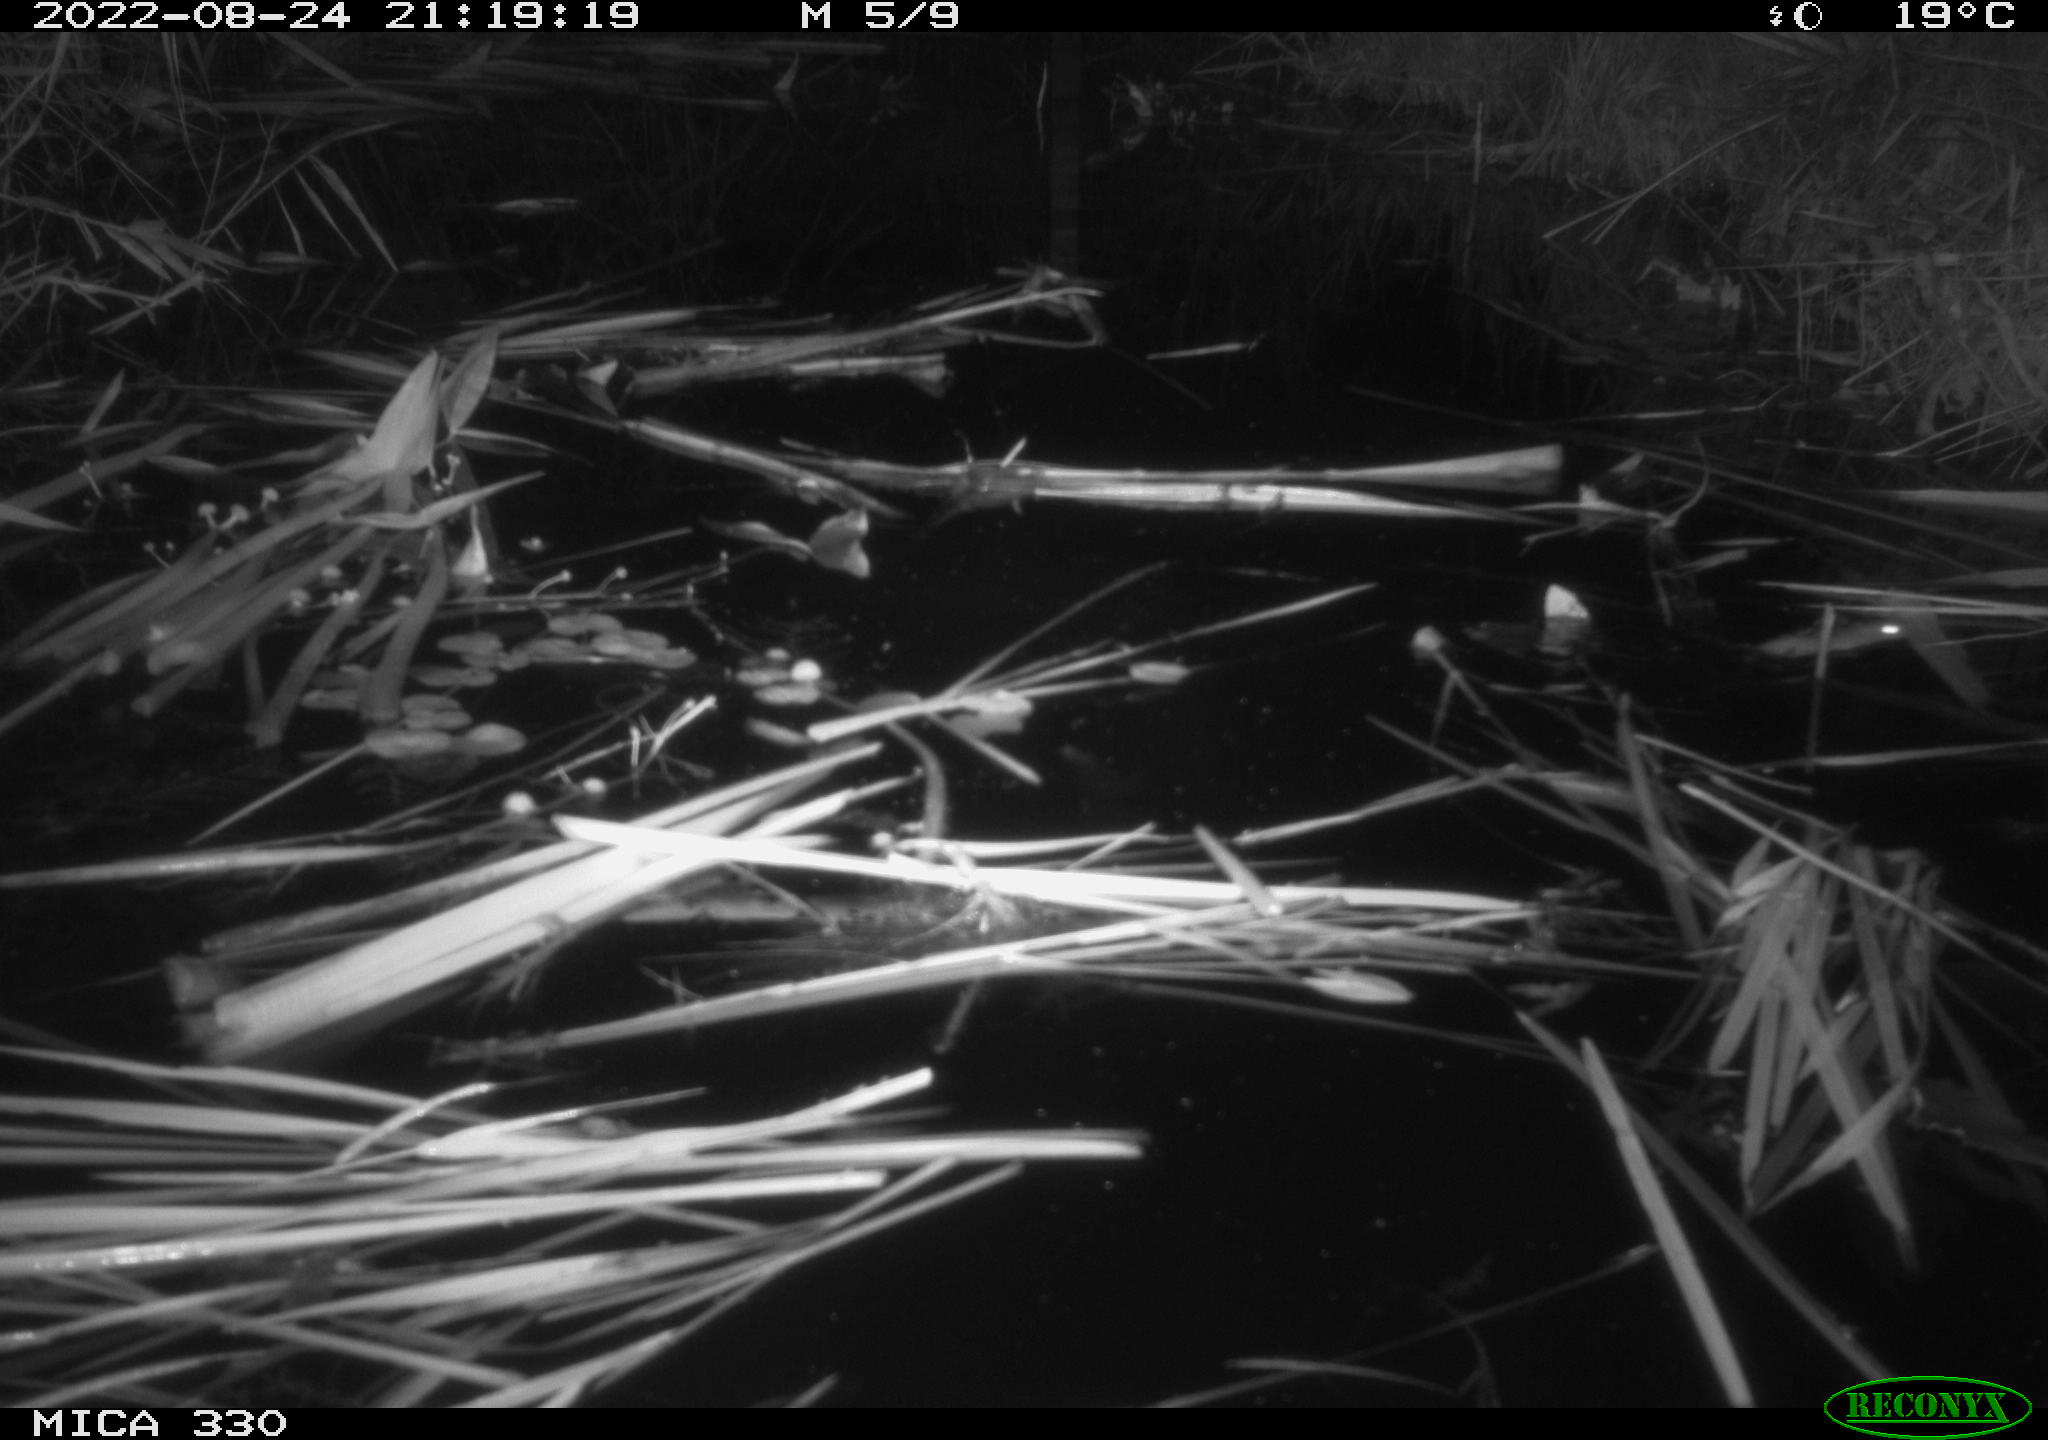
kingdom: Animalia
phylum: Chordata
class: Mammalia
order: Rodentia
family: Muridae
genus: Rattus
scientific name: Rattus norvegicus
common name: Brown rat
